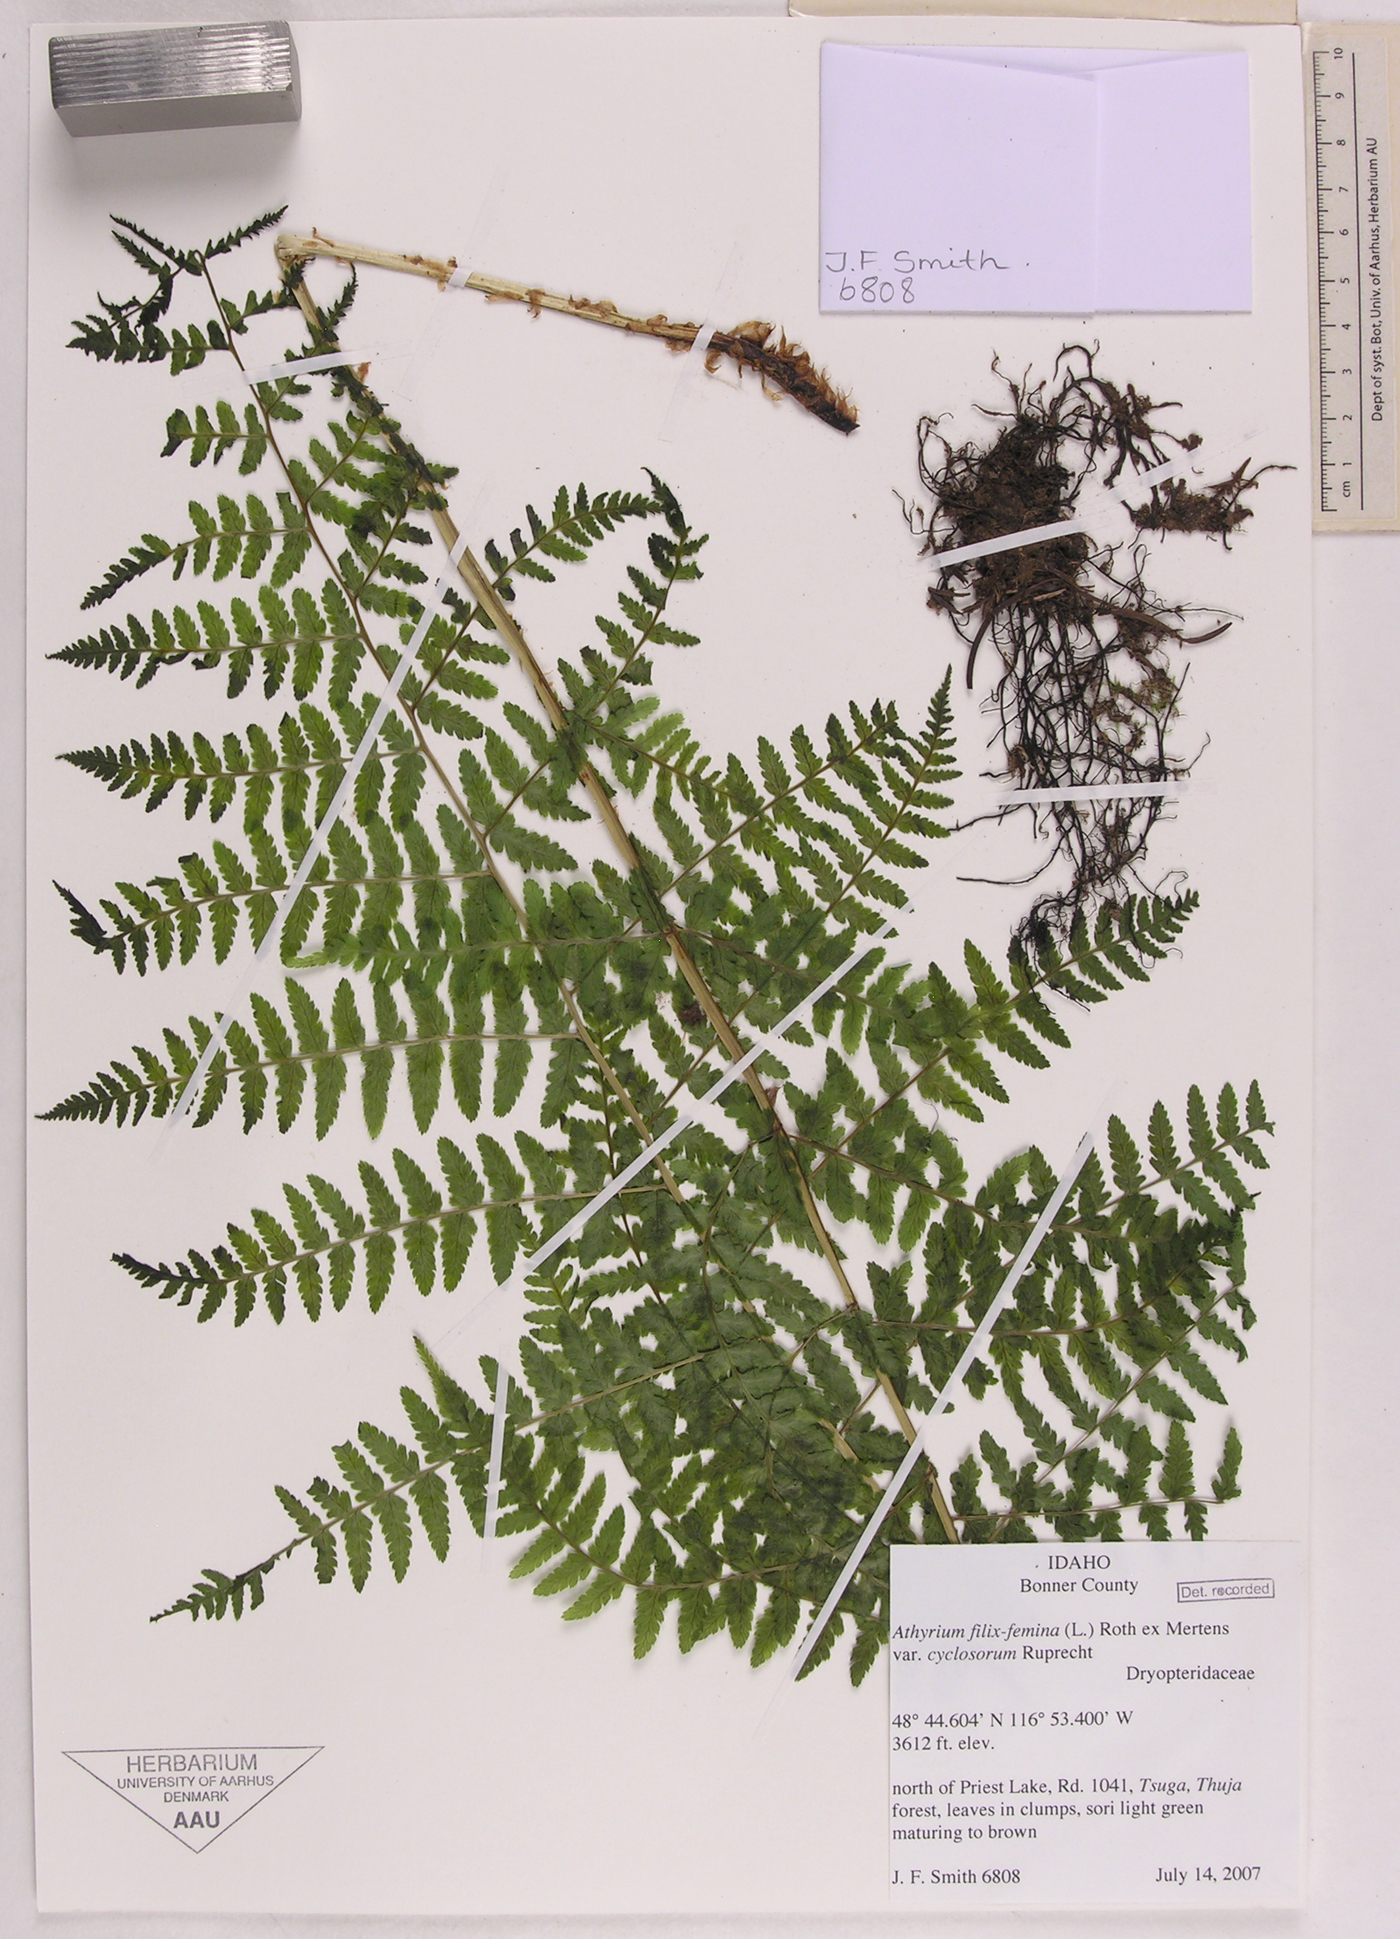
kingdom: Plantae
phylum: Tracheophyta
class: Polypodiopsida
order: Polypodiales
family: Athyriaceae
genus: Athyrium
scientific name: Athyrium filix-femina
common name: Lady fern
